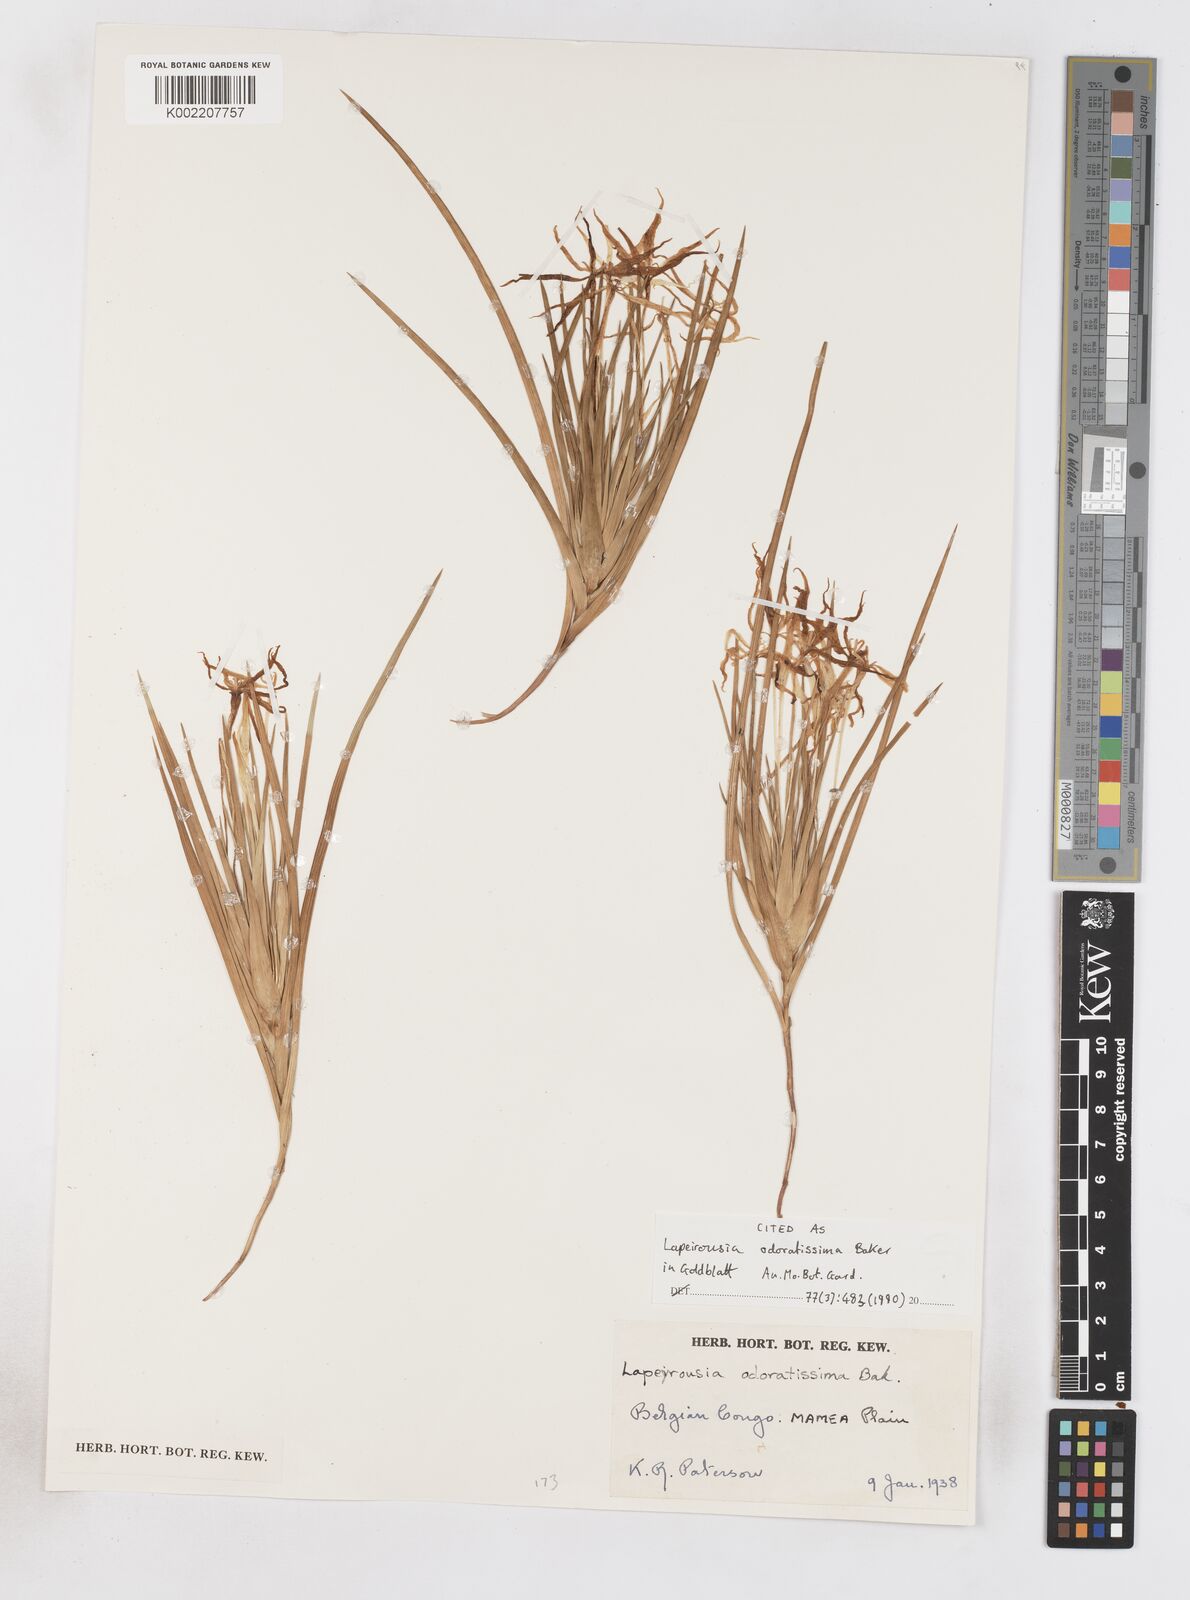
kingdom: Plantae
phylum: Tracheophyta
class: Liliopsida
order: Asparagales
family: Iridaceae
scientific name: Iridaceae
